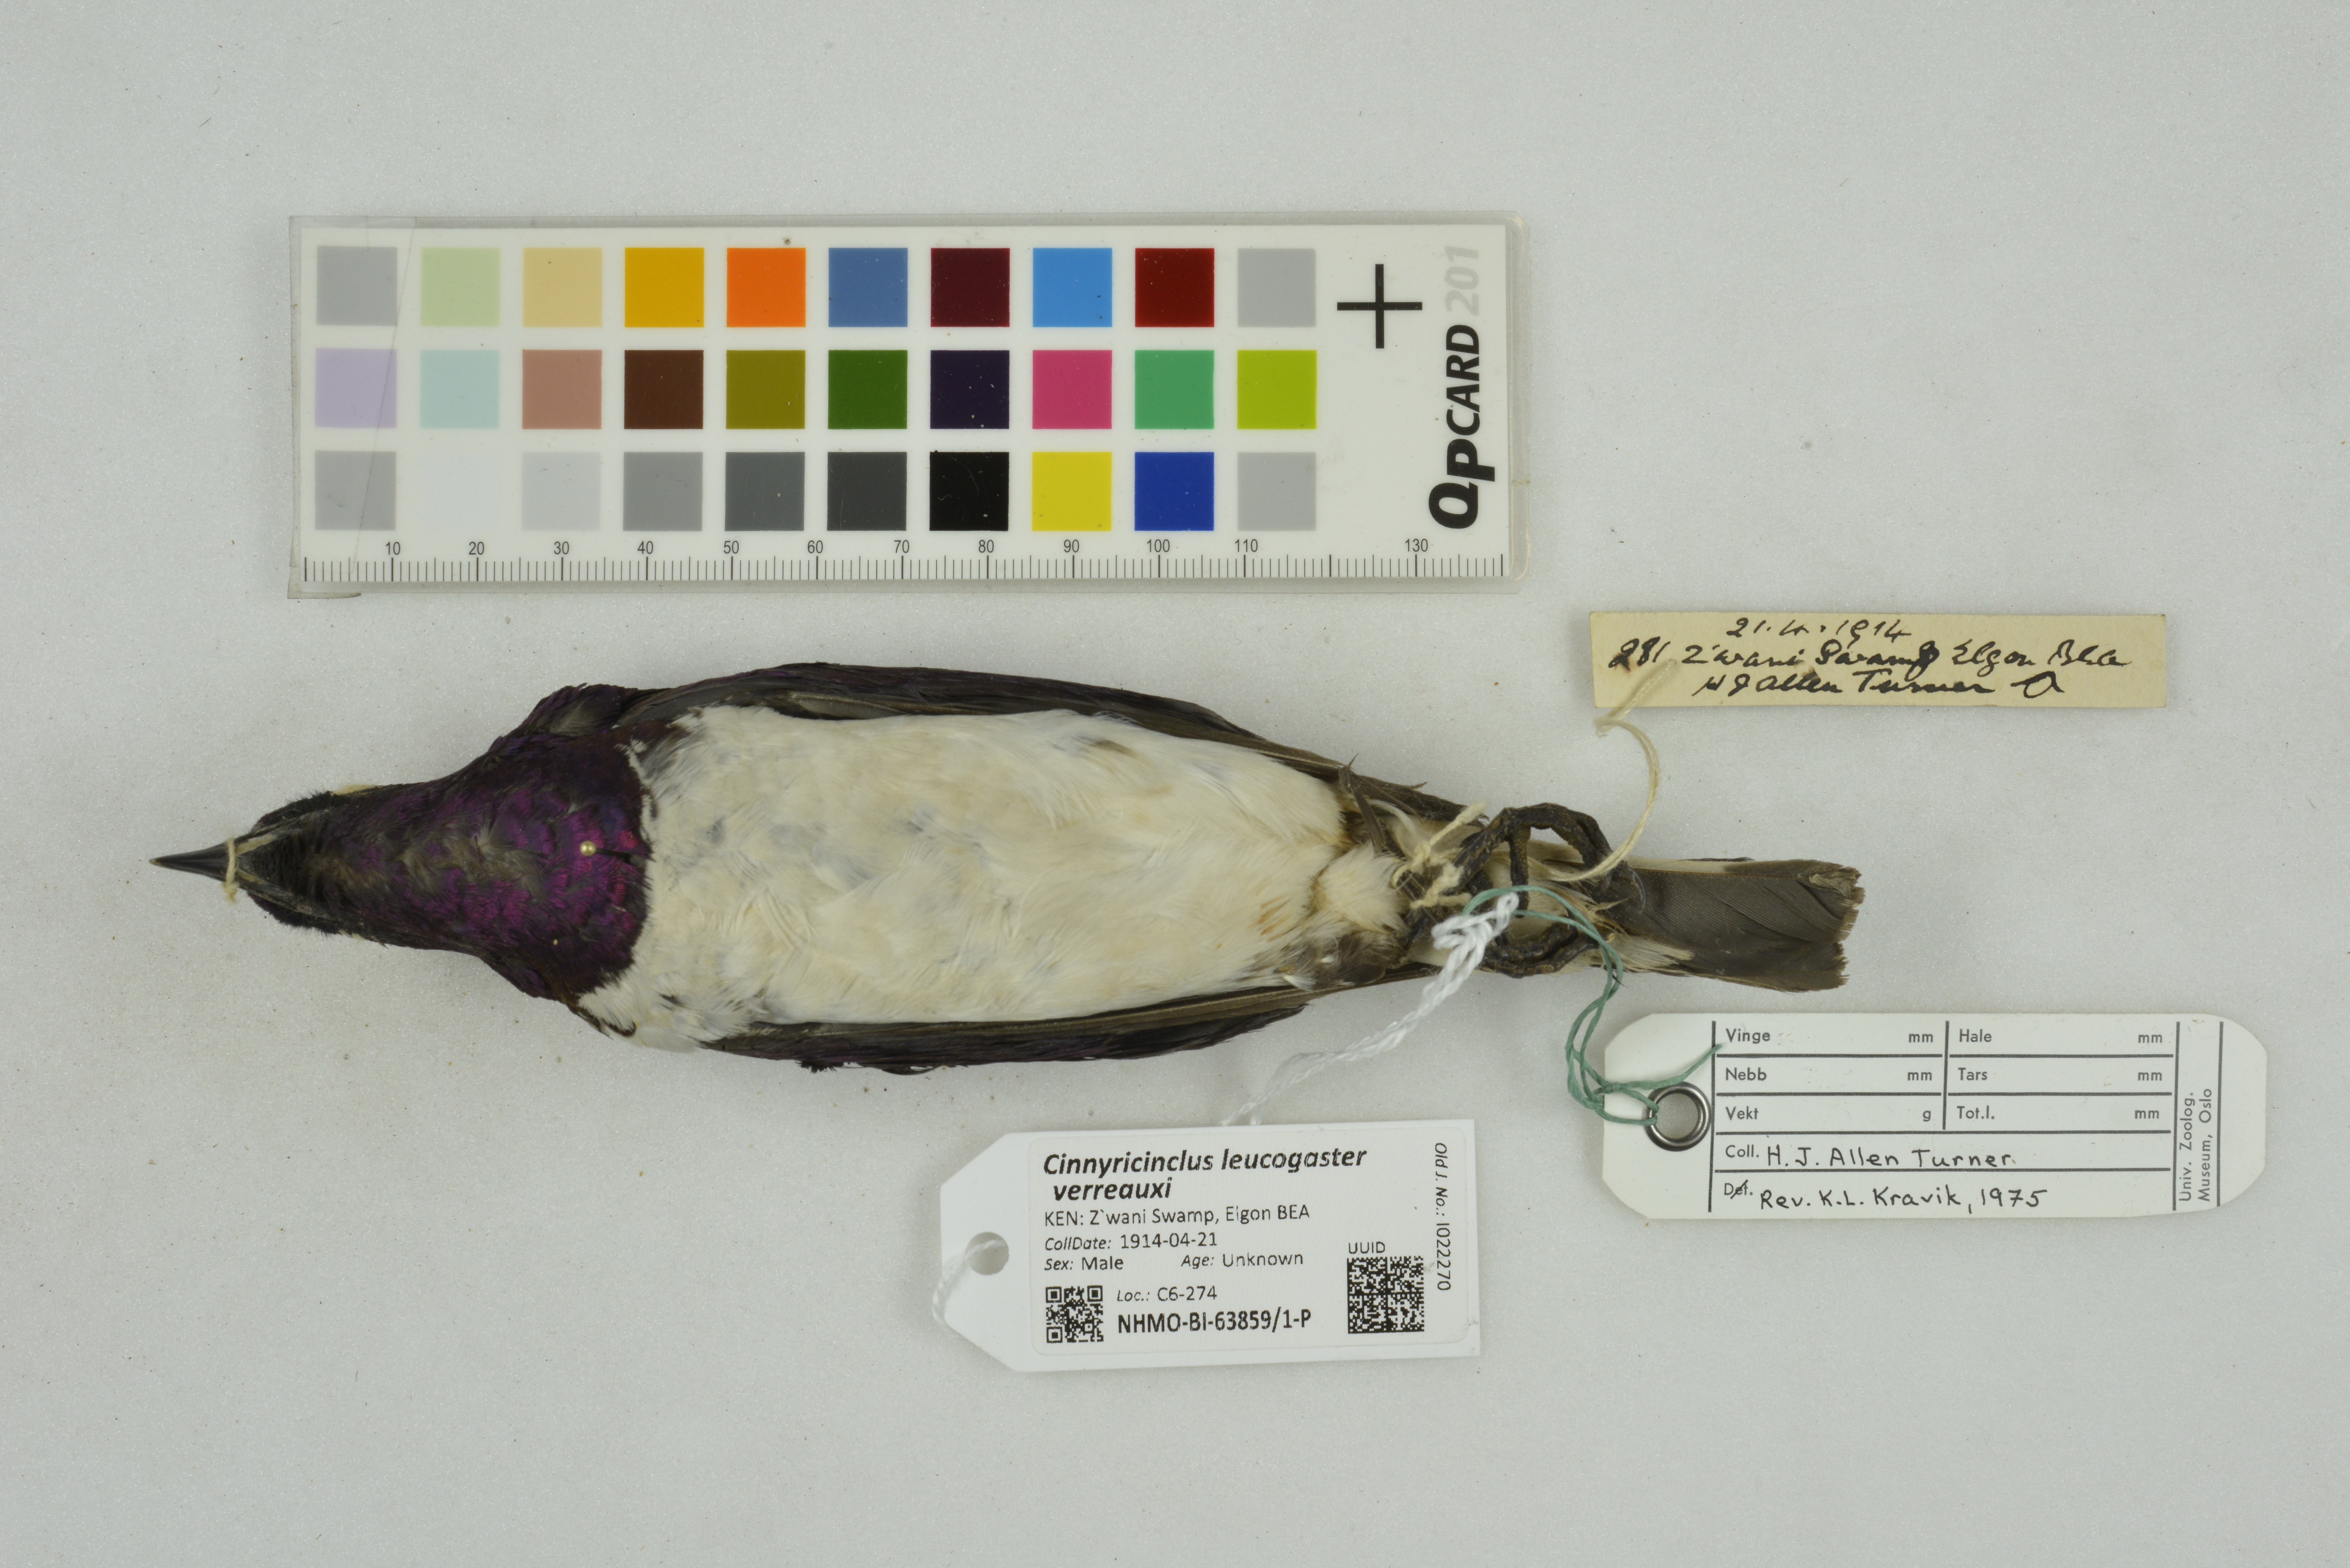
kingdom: Animalia
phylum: Chordata
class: Aves
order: Passeriformes
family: Sturnidae
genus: Cinnyricinclus
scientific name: Cinnyricinclus leucogaster
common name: Violet-backed starling
